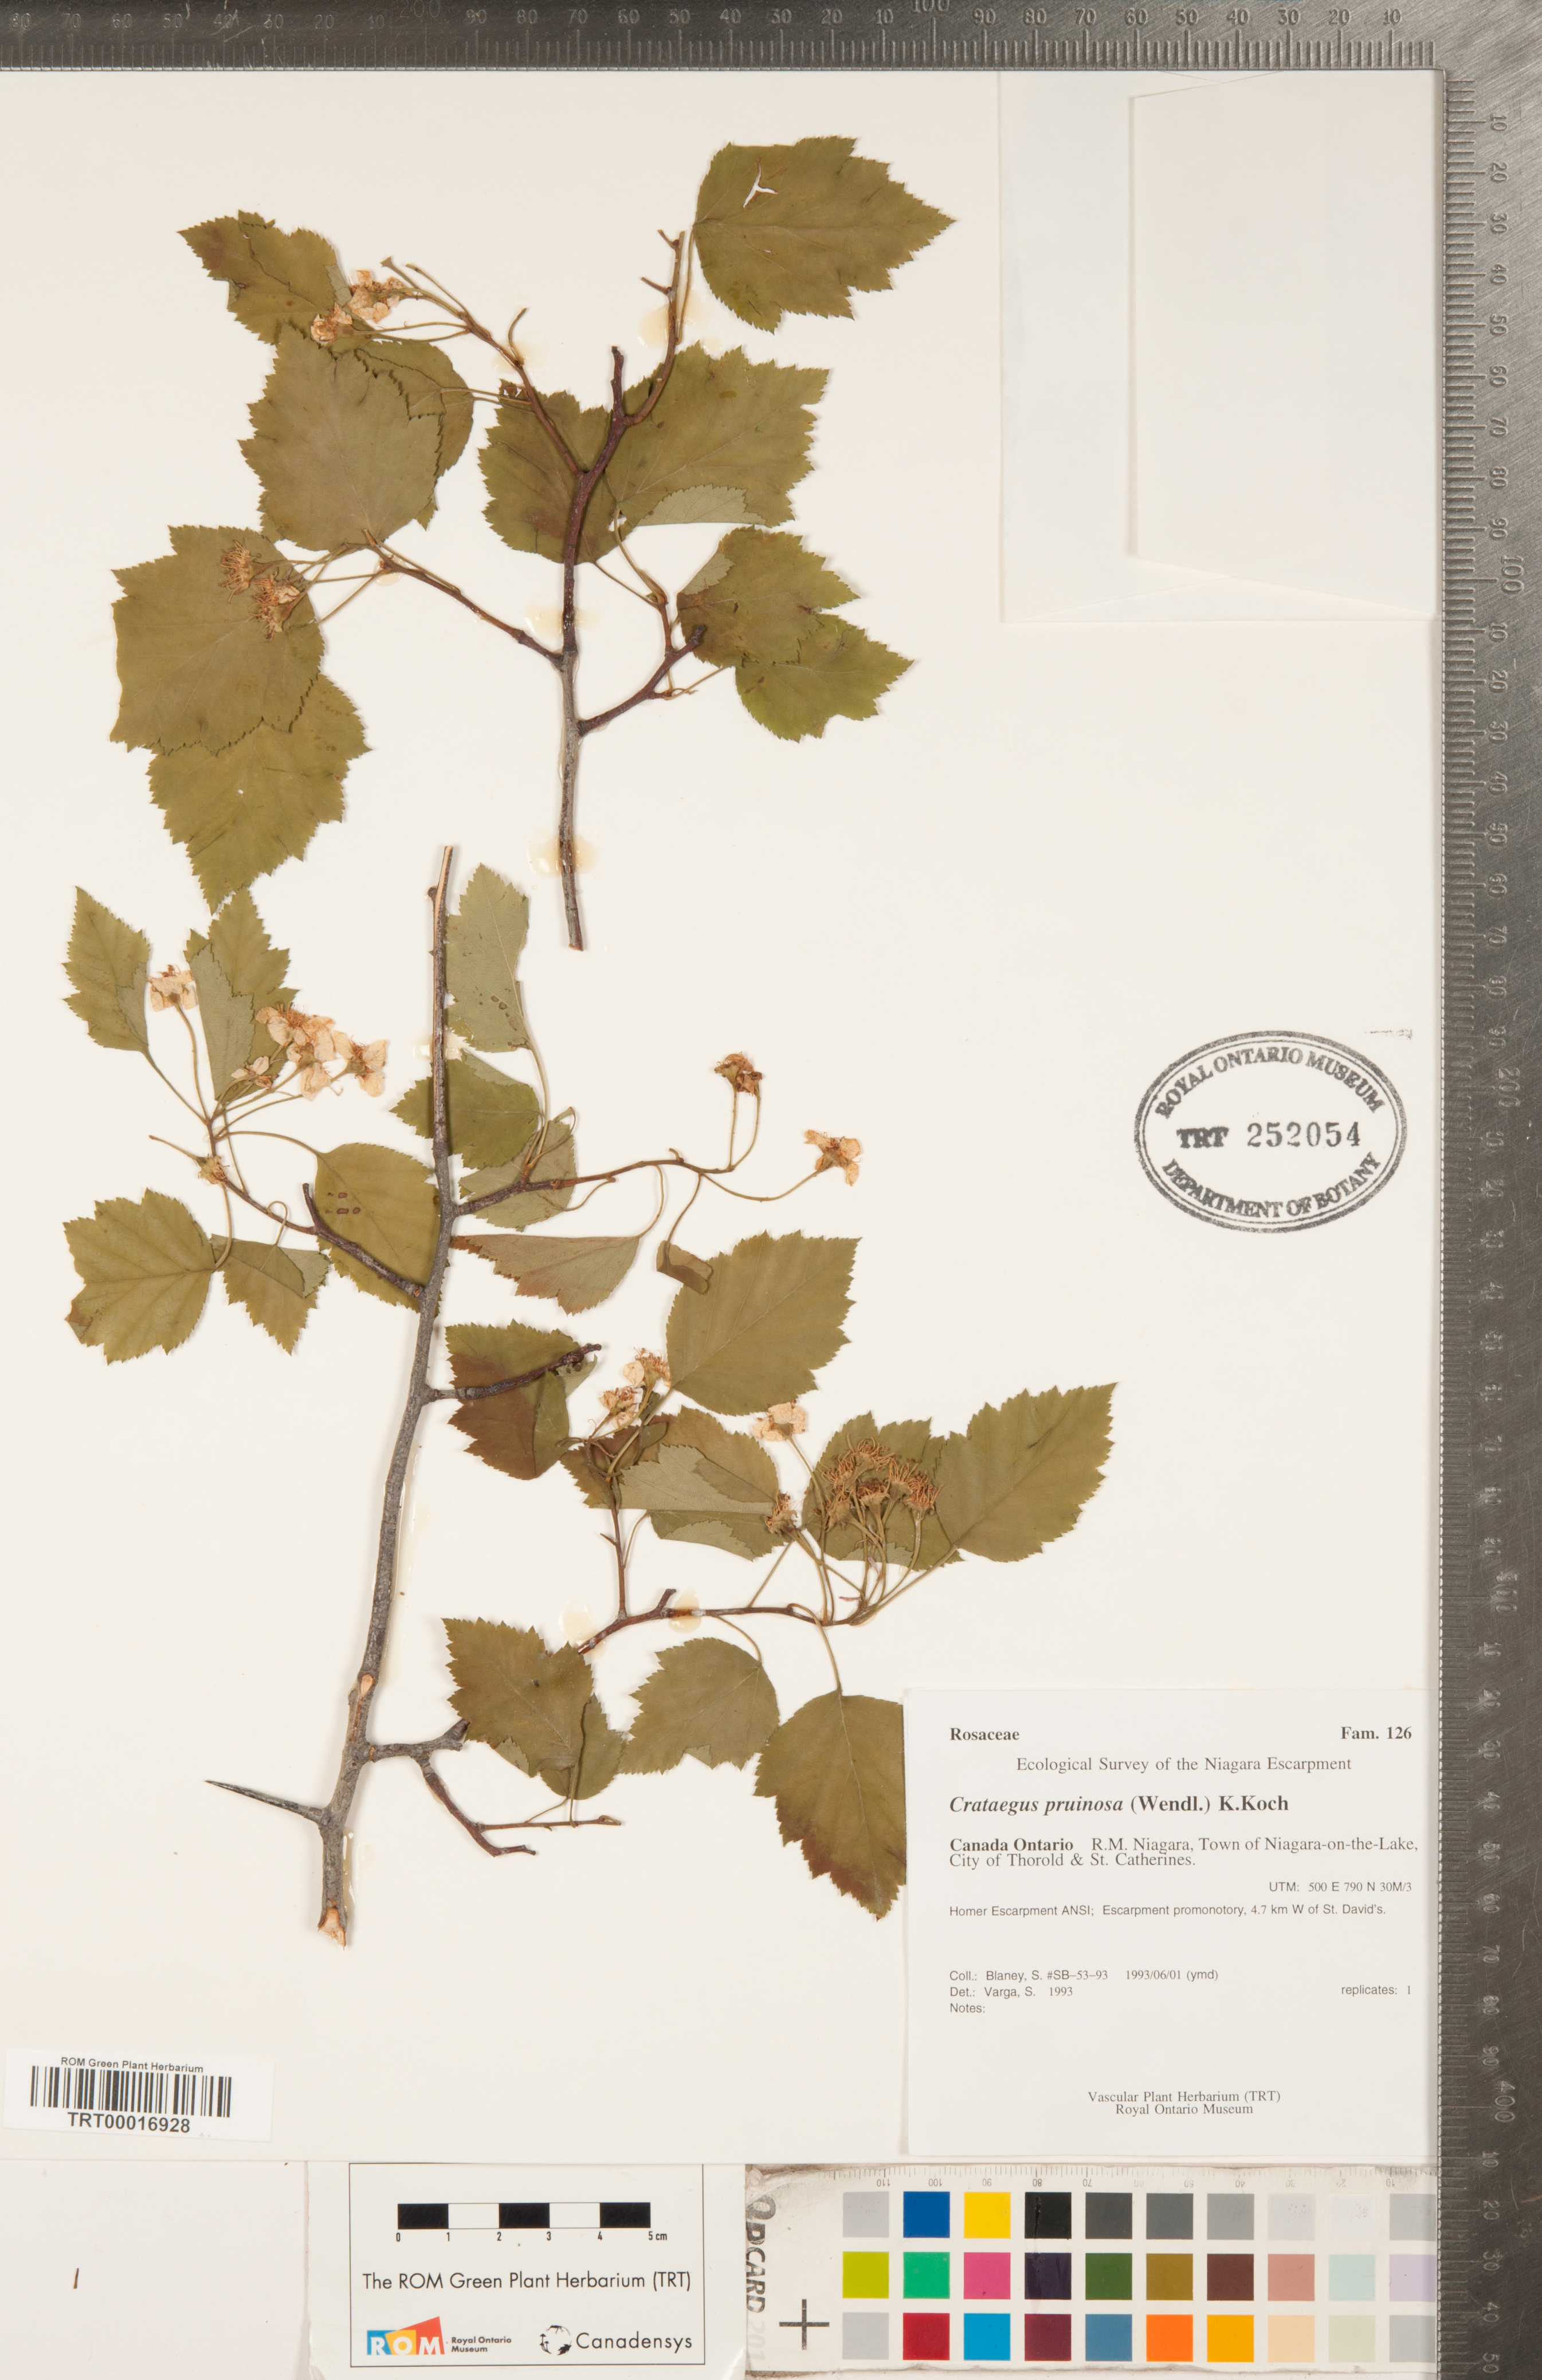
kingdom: Plantae
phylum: Tracheophyta
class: Magnoliopsida
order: Rosales
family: Rosaceae
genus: Crataegus
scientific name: Crataegus pruinosa
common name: Waxy-fruit hawthorn
